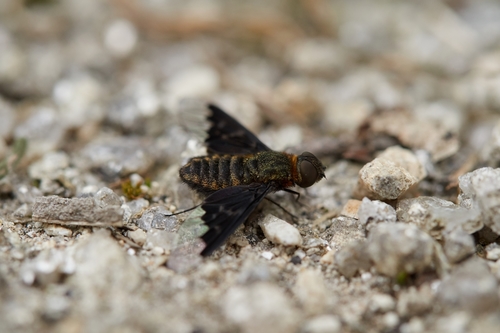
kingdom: Animalia
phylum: Arthropoda
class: Insecta
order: Diptera
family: Bombyliidae
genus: Hemipenthes
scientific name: Hemipenthes morio
